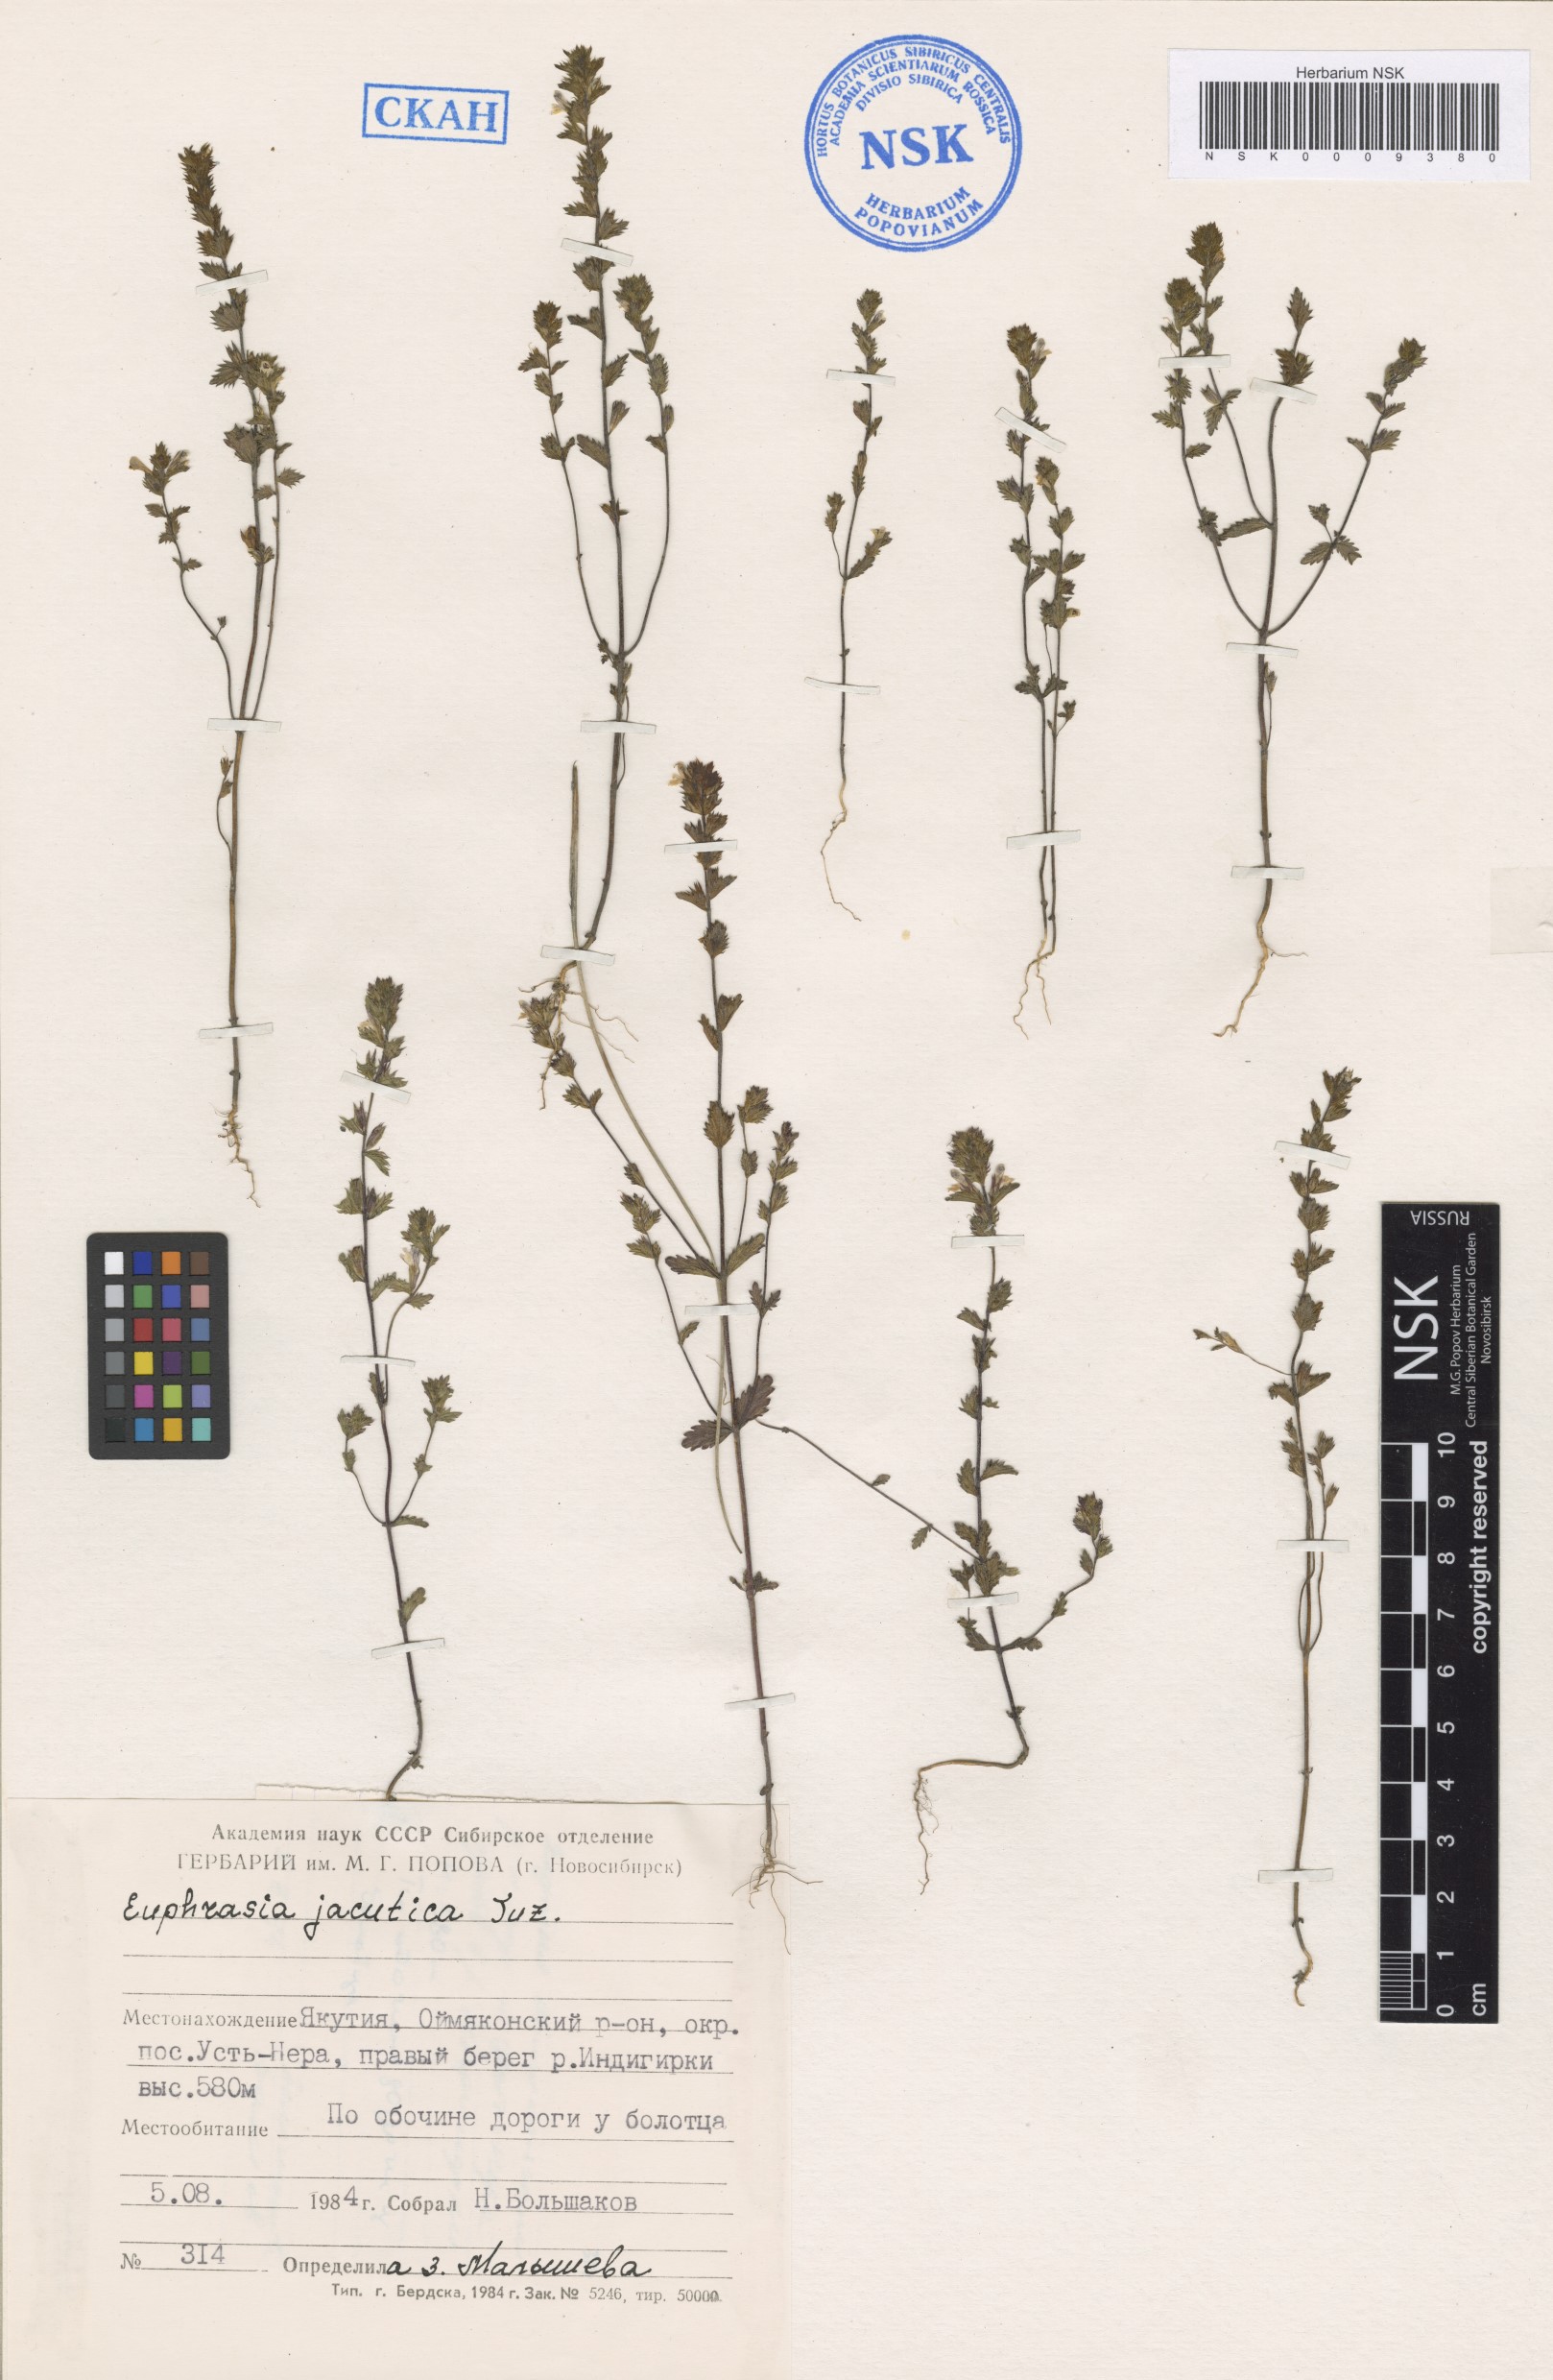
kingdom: Plantae
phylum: Tracheophyta
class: Magnoliopsida
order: Lamiales
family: Orobanchaceae
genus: Euphrasia
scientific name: Euphrasia jacutica
